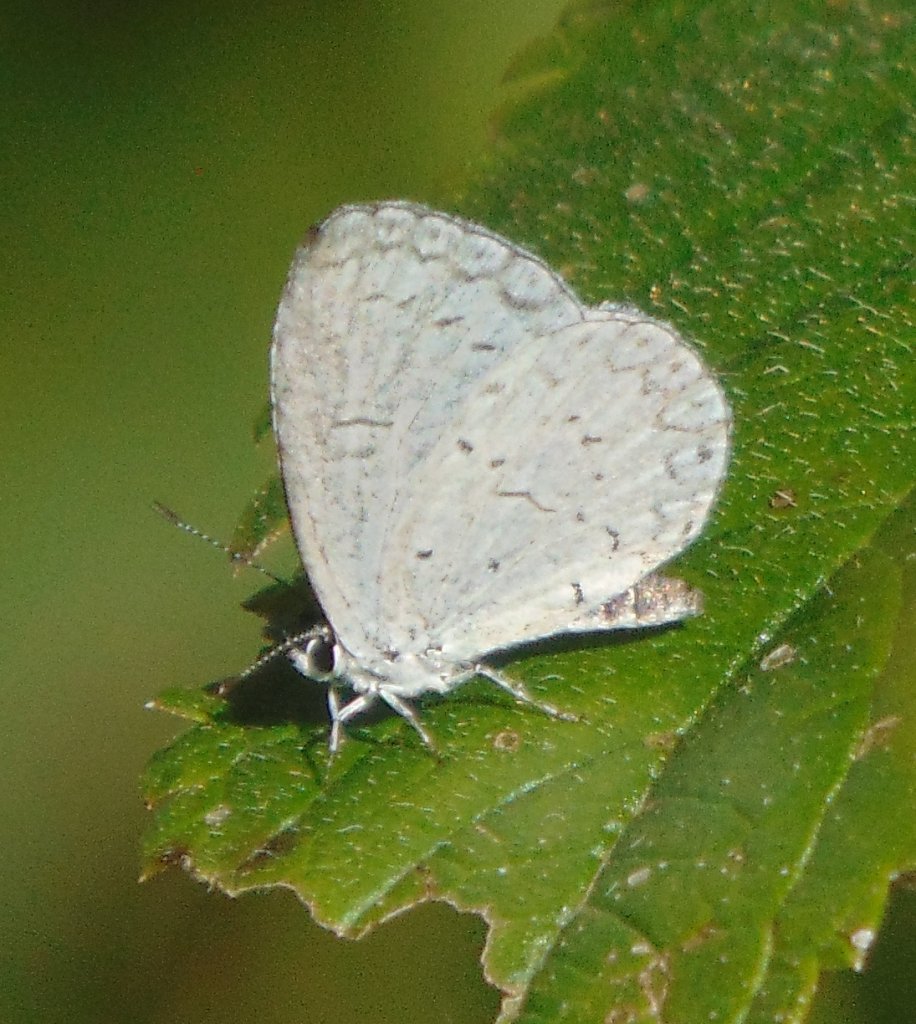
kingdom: Animalia
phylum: Arthropoda
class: Insecta
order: Lepidoptera
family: Lycaenidae
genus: Cyaniris
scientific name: Cyaniris neglecta
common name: Summer Azure
